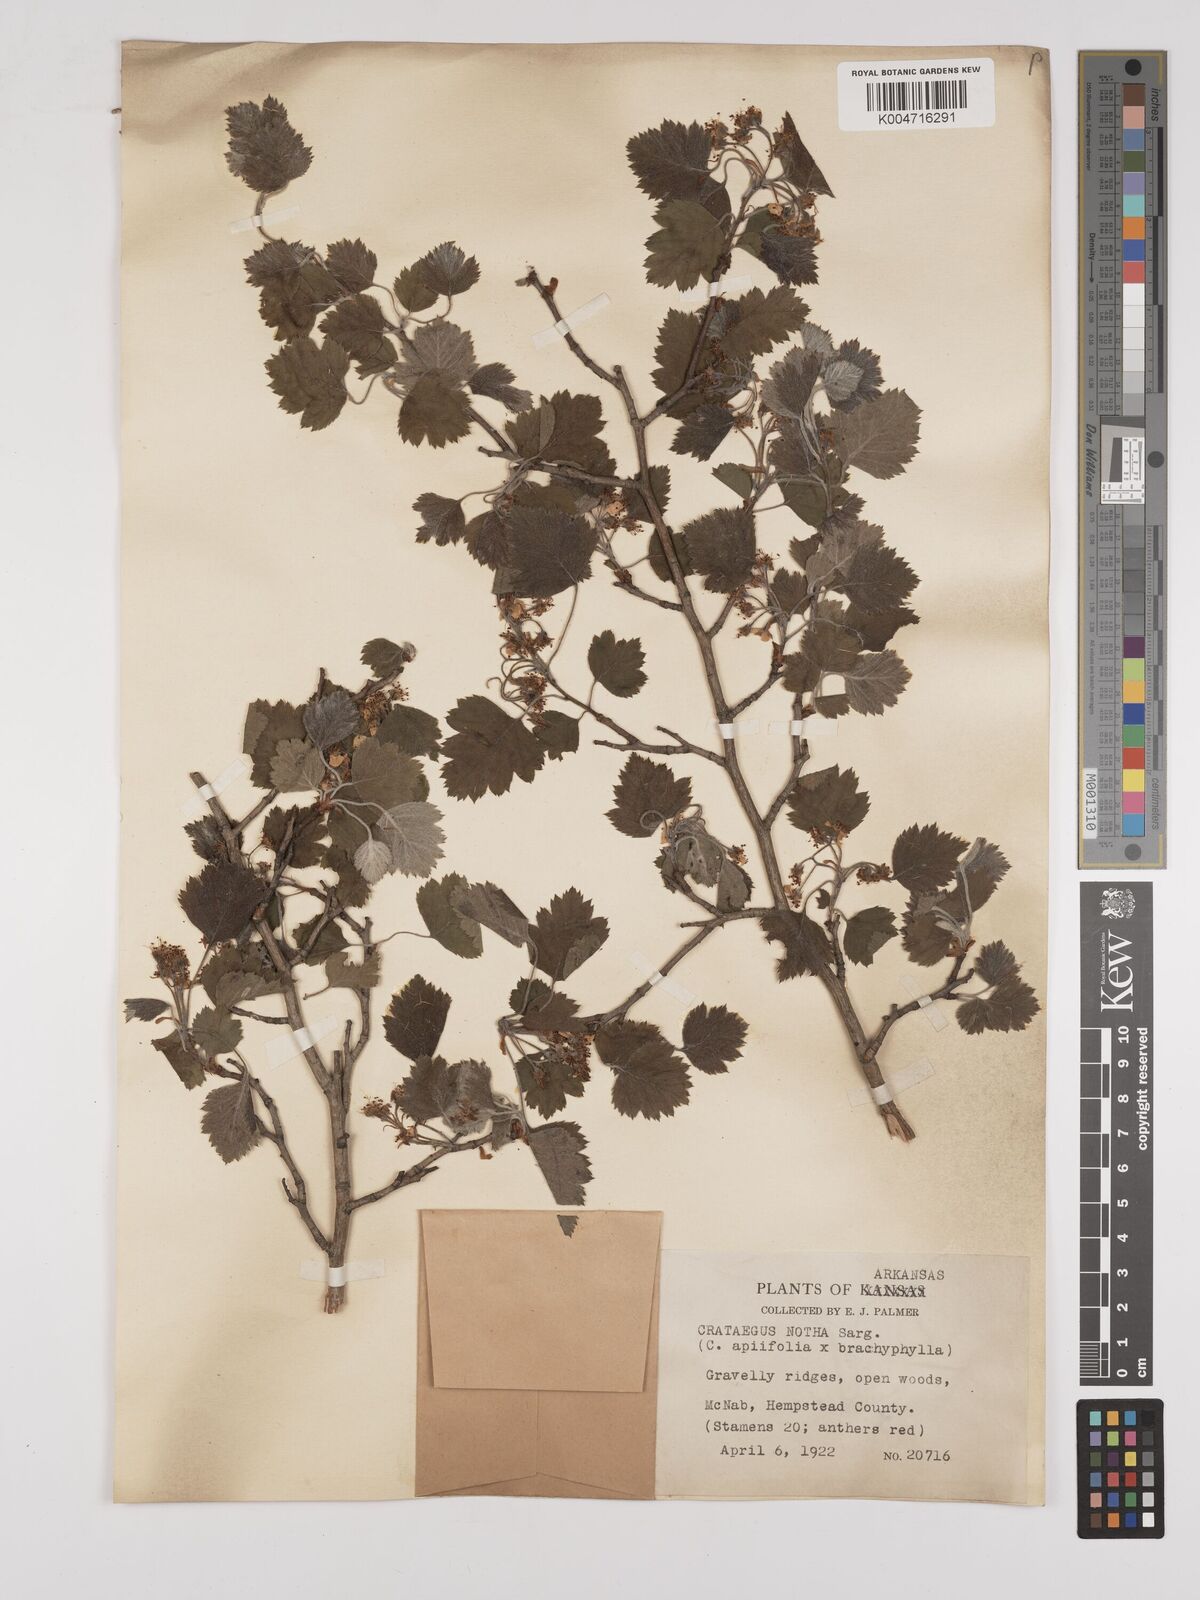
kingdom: Plantae
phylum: Tracheophyta
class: Magnoliopsida
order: Rosales
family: Rosaceae
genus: Crataegus
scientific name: Crataegus notha
